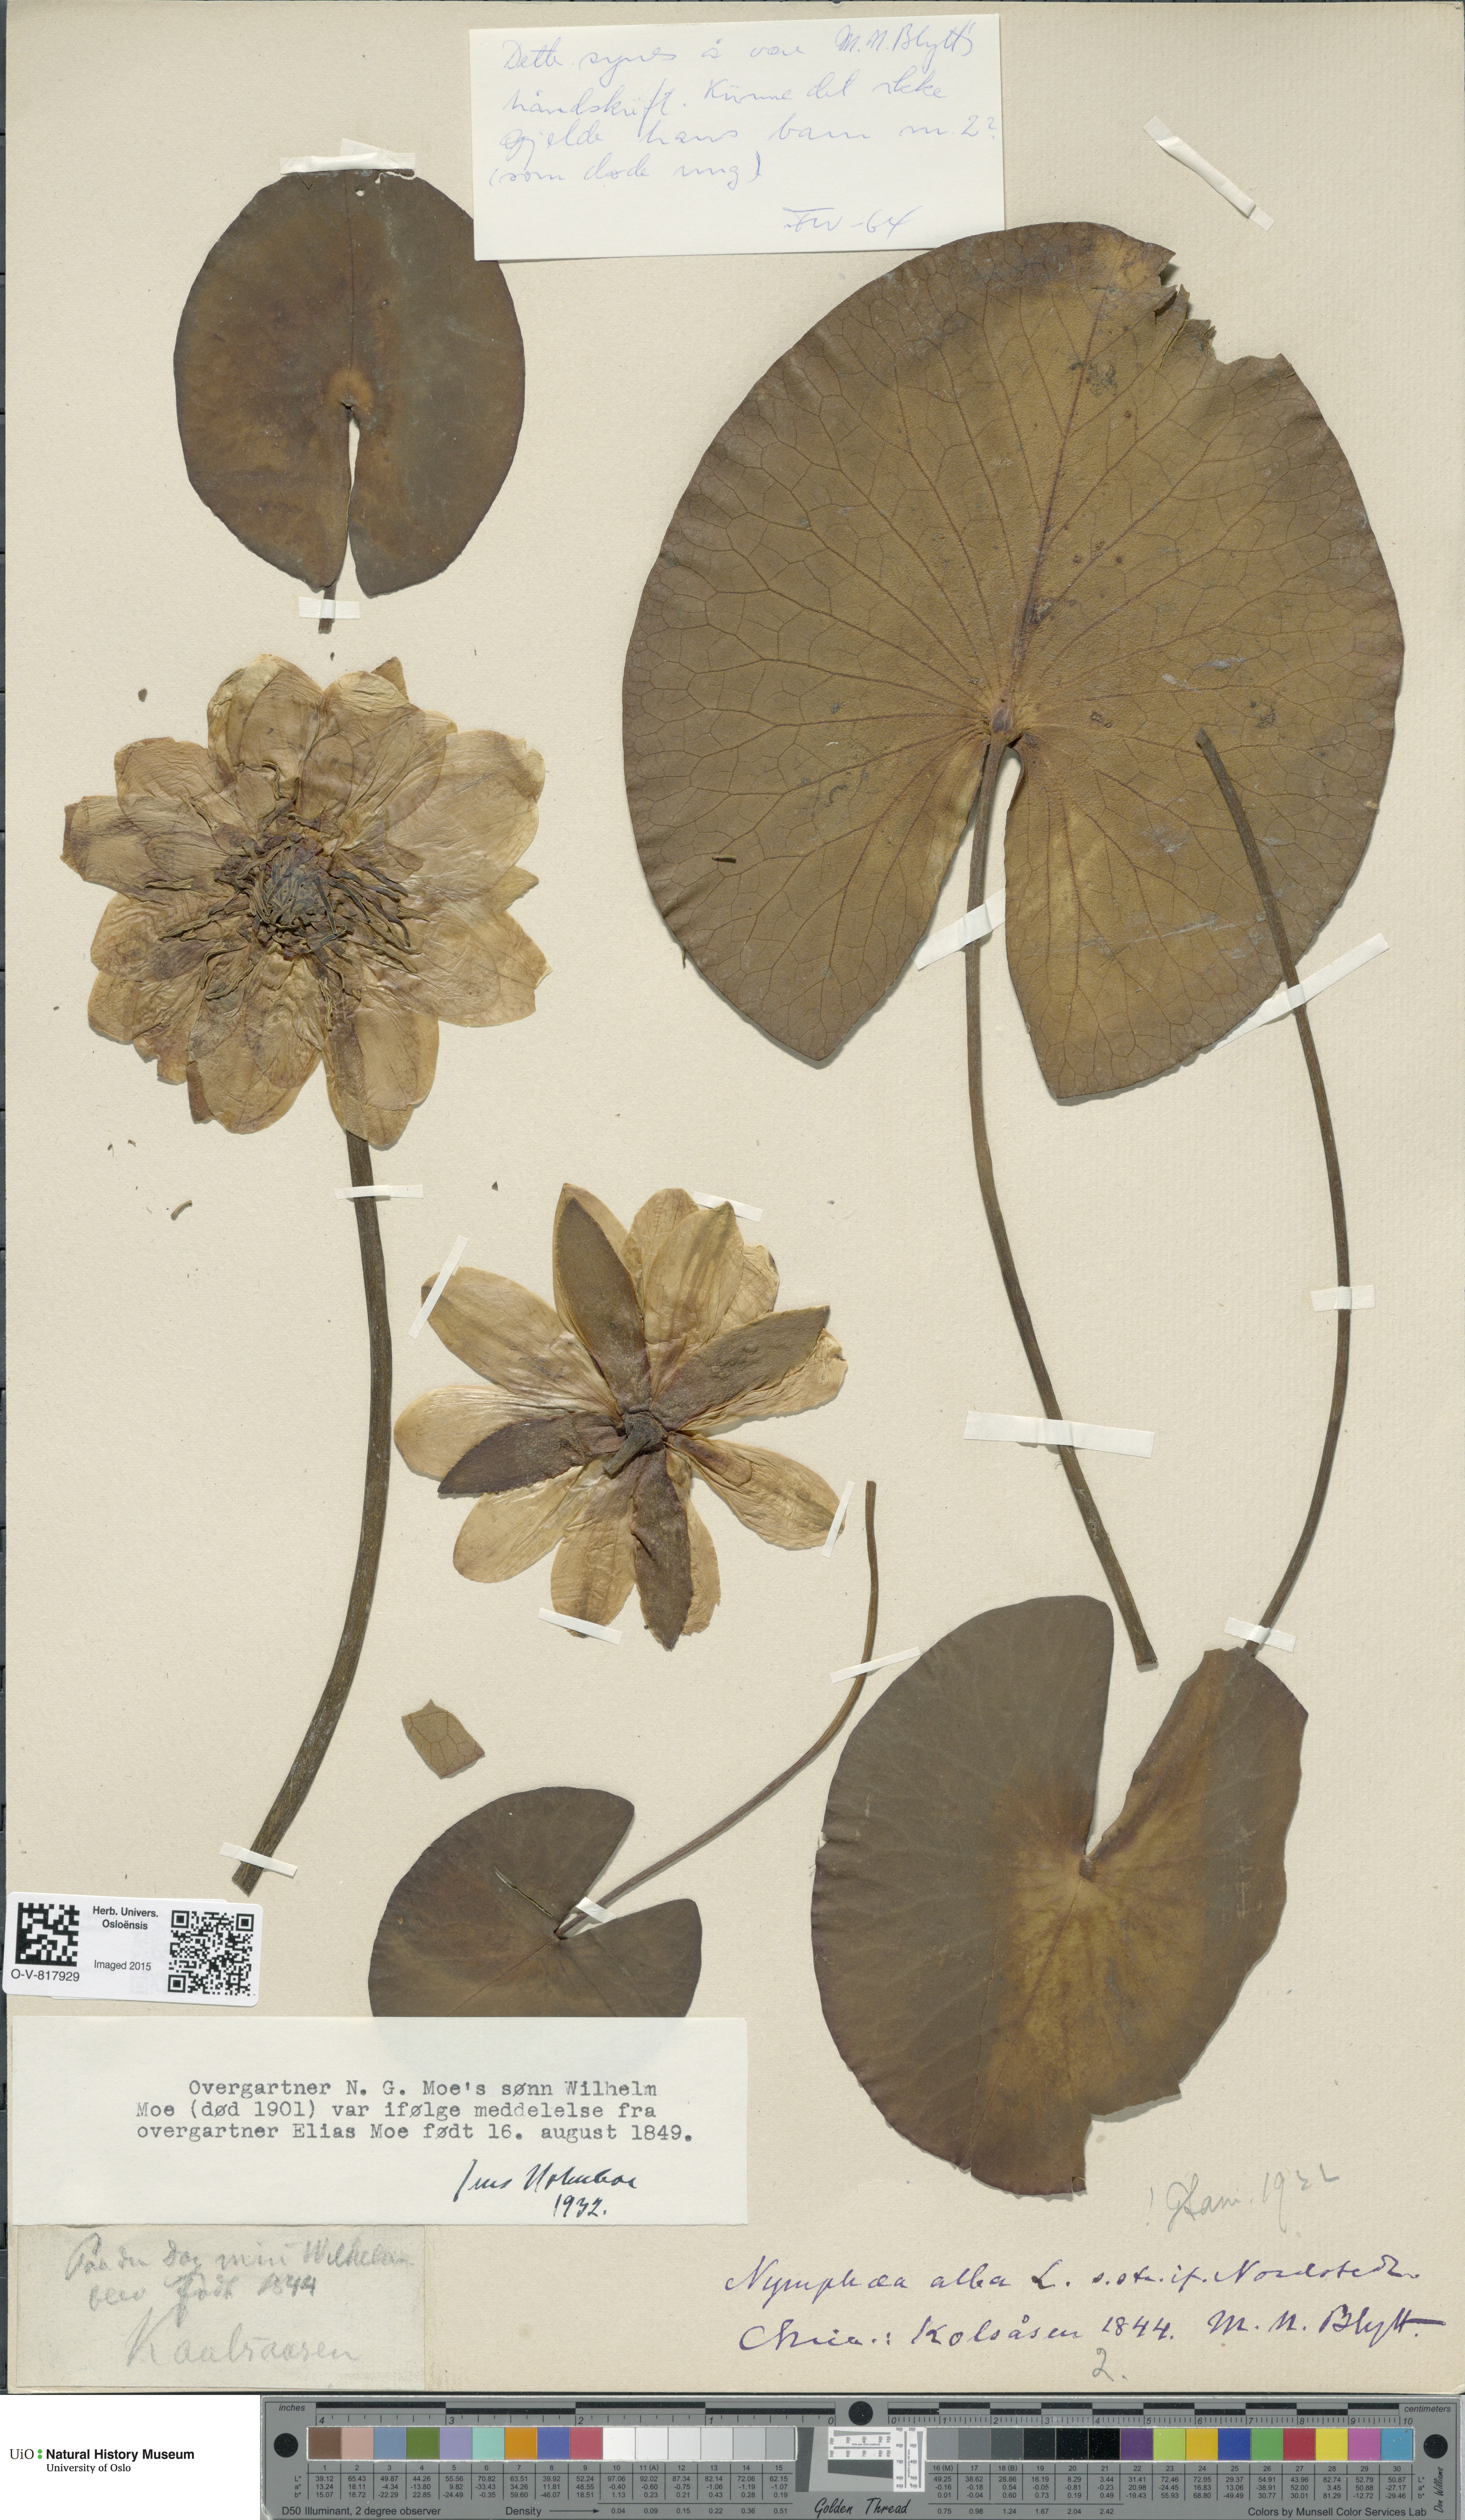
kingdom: Plantae
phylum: Tracheophyta
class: Magnoliopsida
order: Nymphaeales
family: Nymphaeaceae
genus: Nymphaea
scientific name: Nymphaea alba
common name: White water-lily
